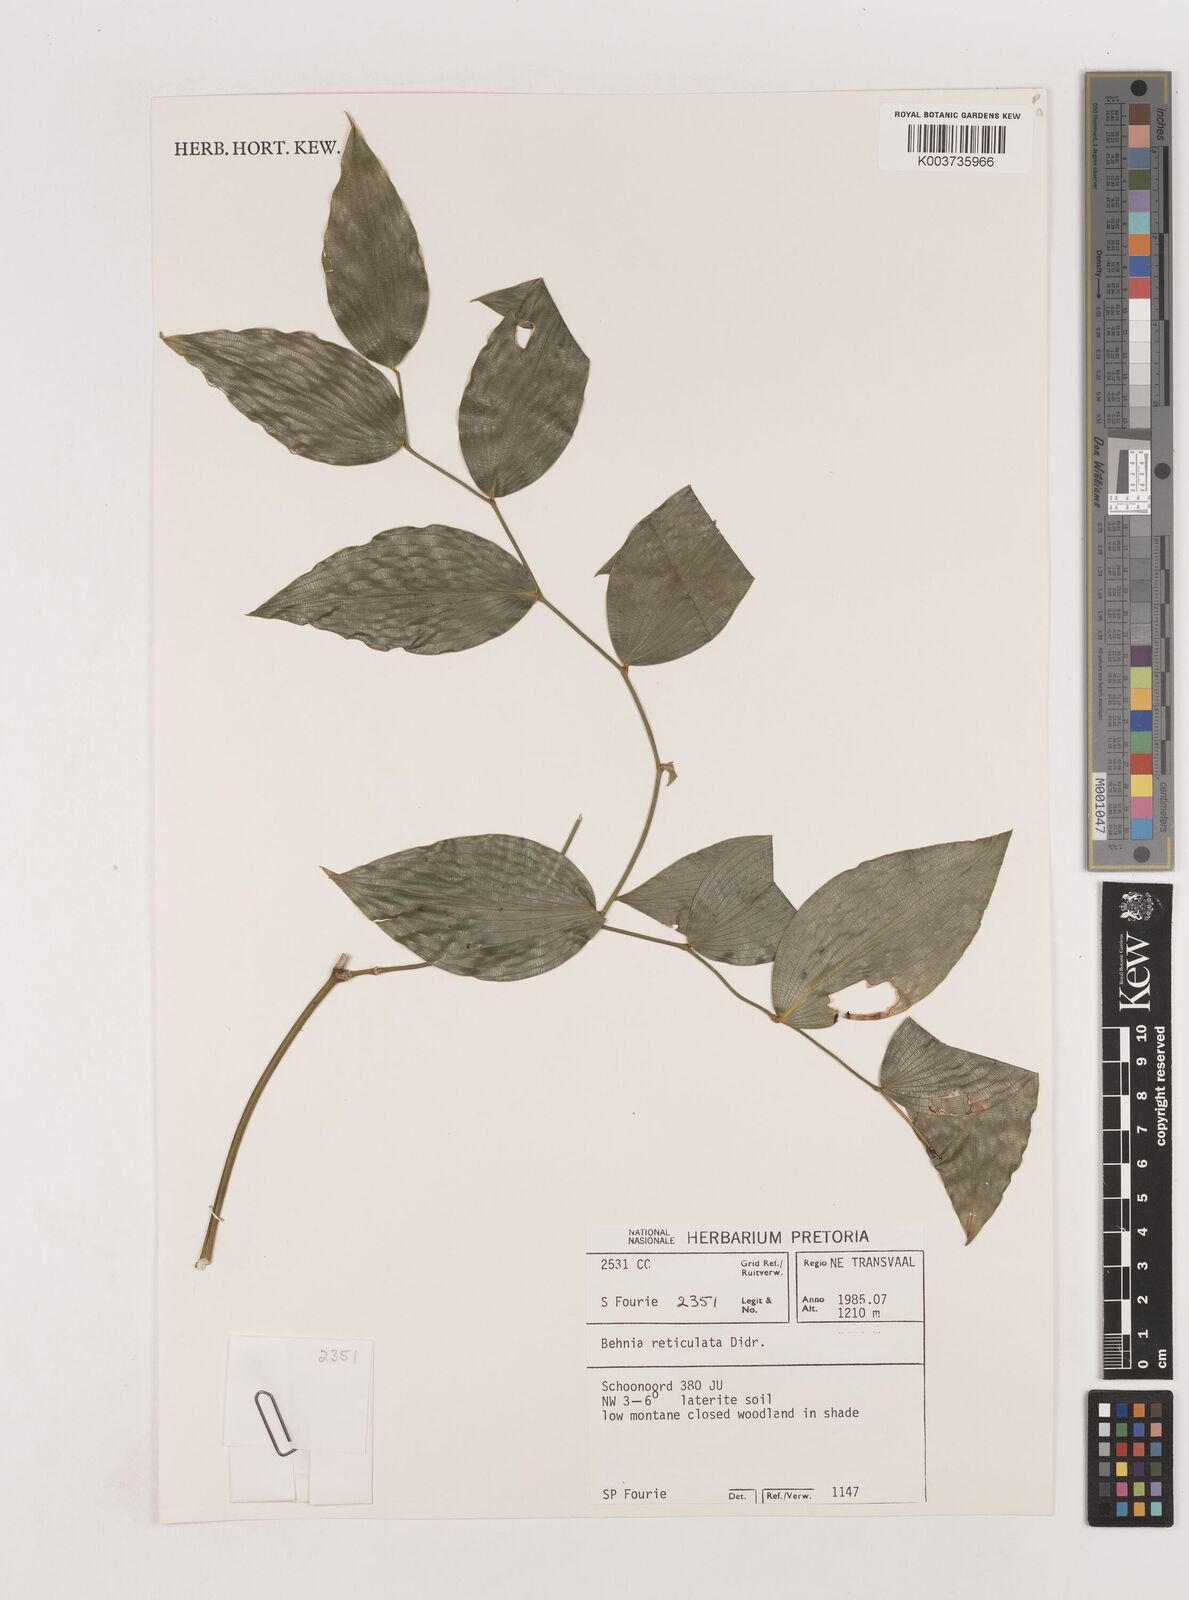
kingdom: Plantae
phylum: Tracheophyta
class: Liliopsida
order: Asparagales
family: Asparagaceae
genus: Behnia
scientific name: Behnia reticulata
